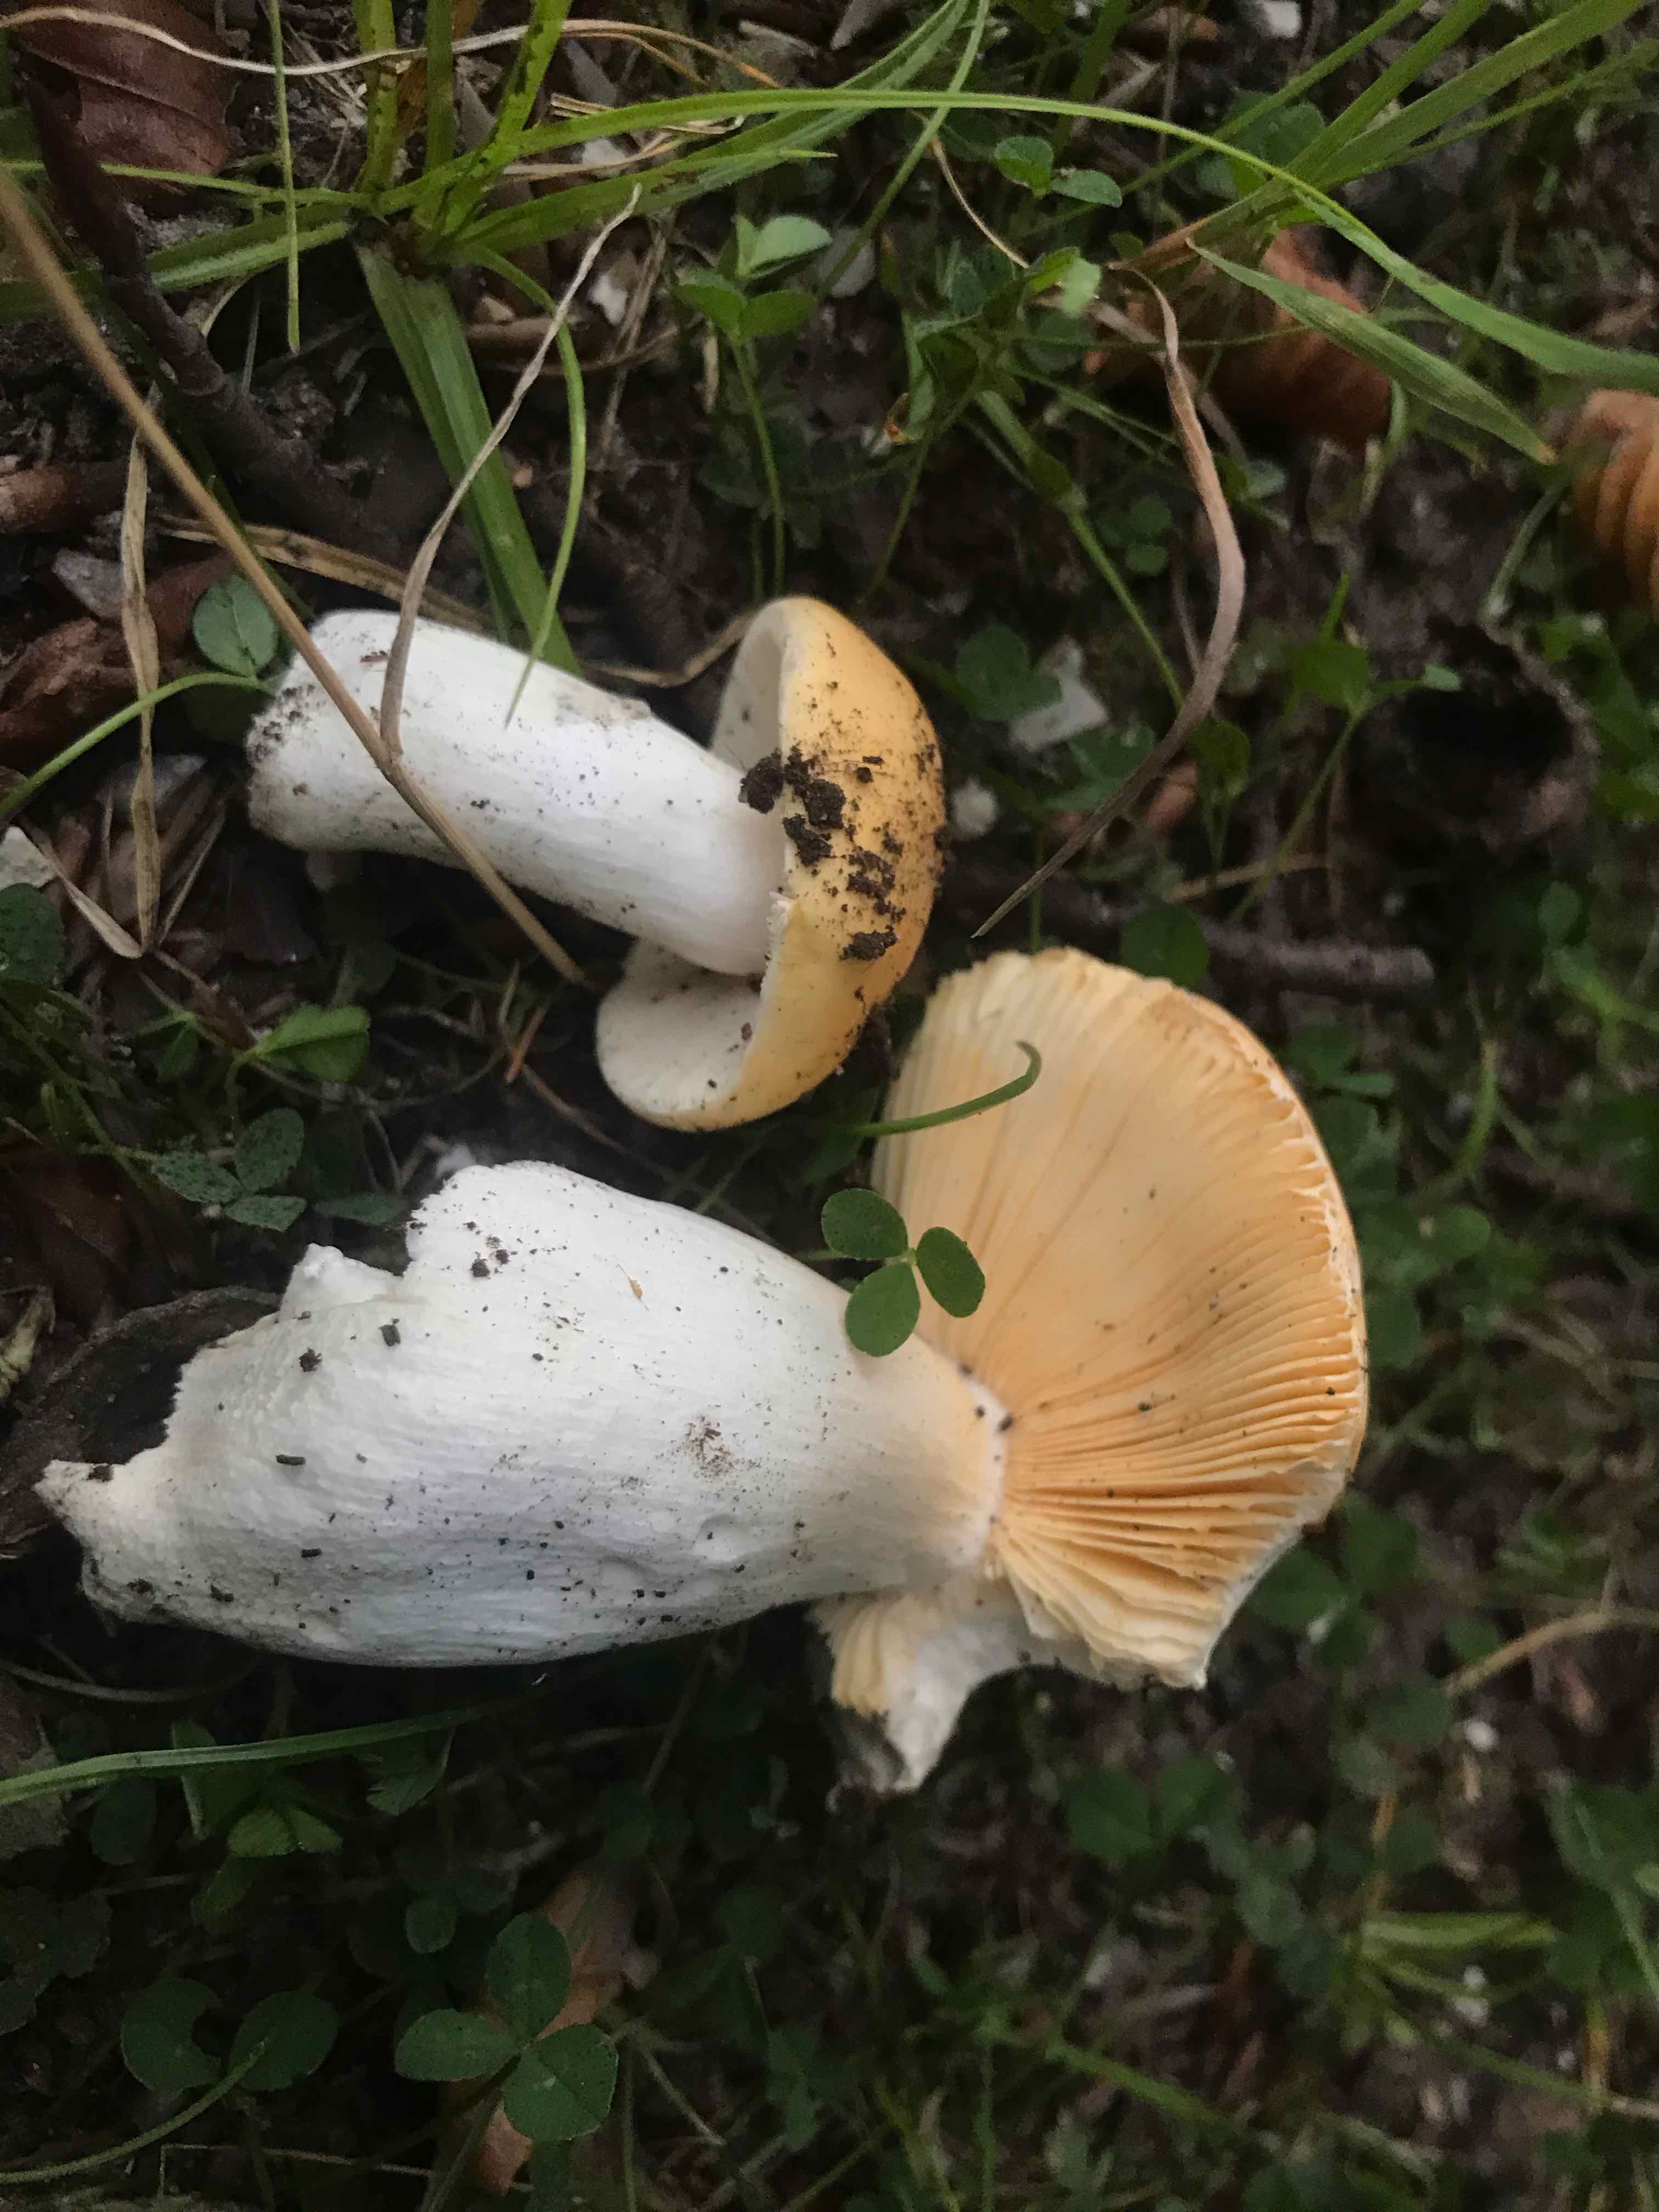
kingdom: Fungi
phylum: Basidiomycota
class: Agaricomycetes
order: Russulales
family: Russulaceae
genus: Russula
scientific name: Russula risigallina
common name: abrikos-skørhat
